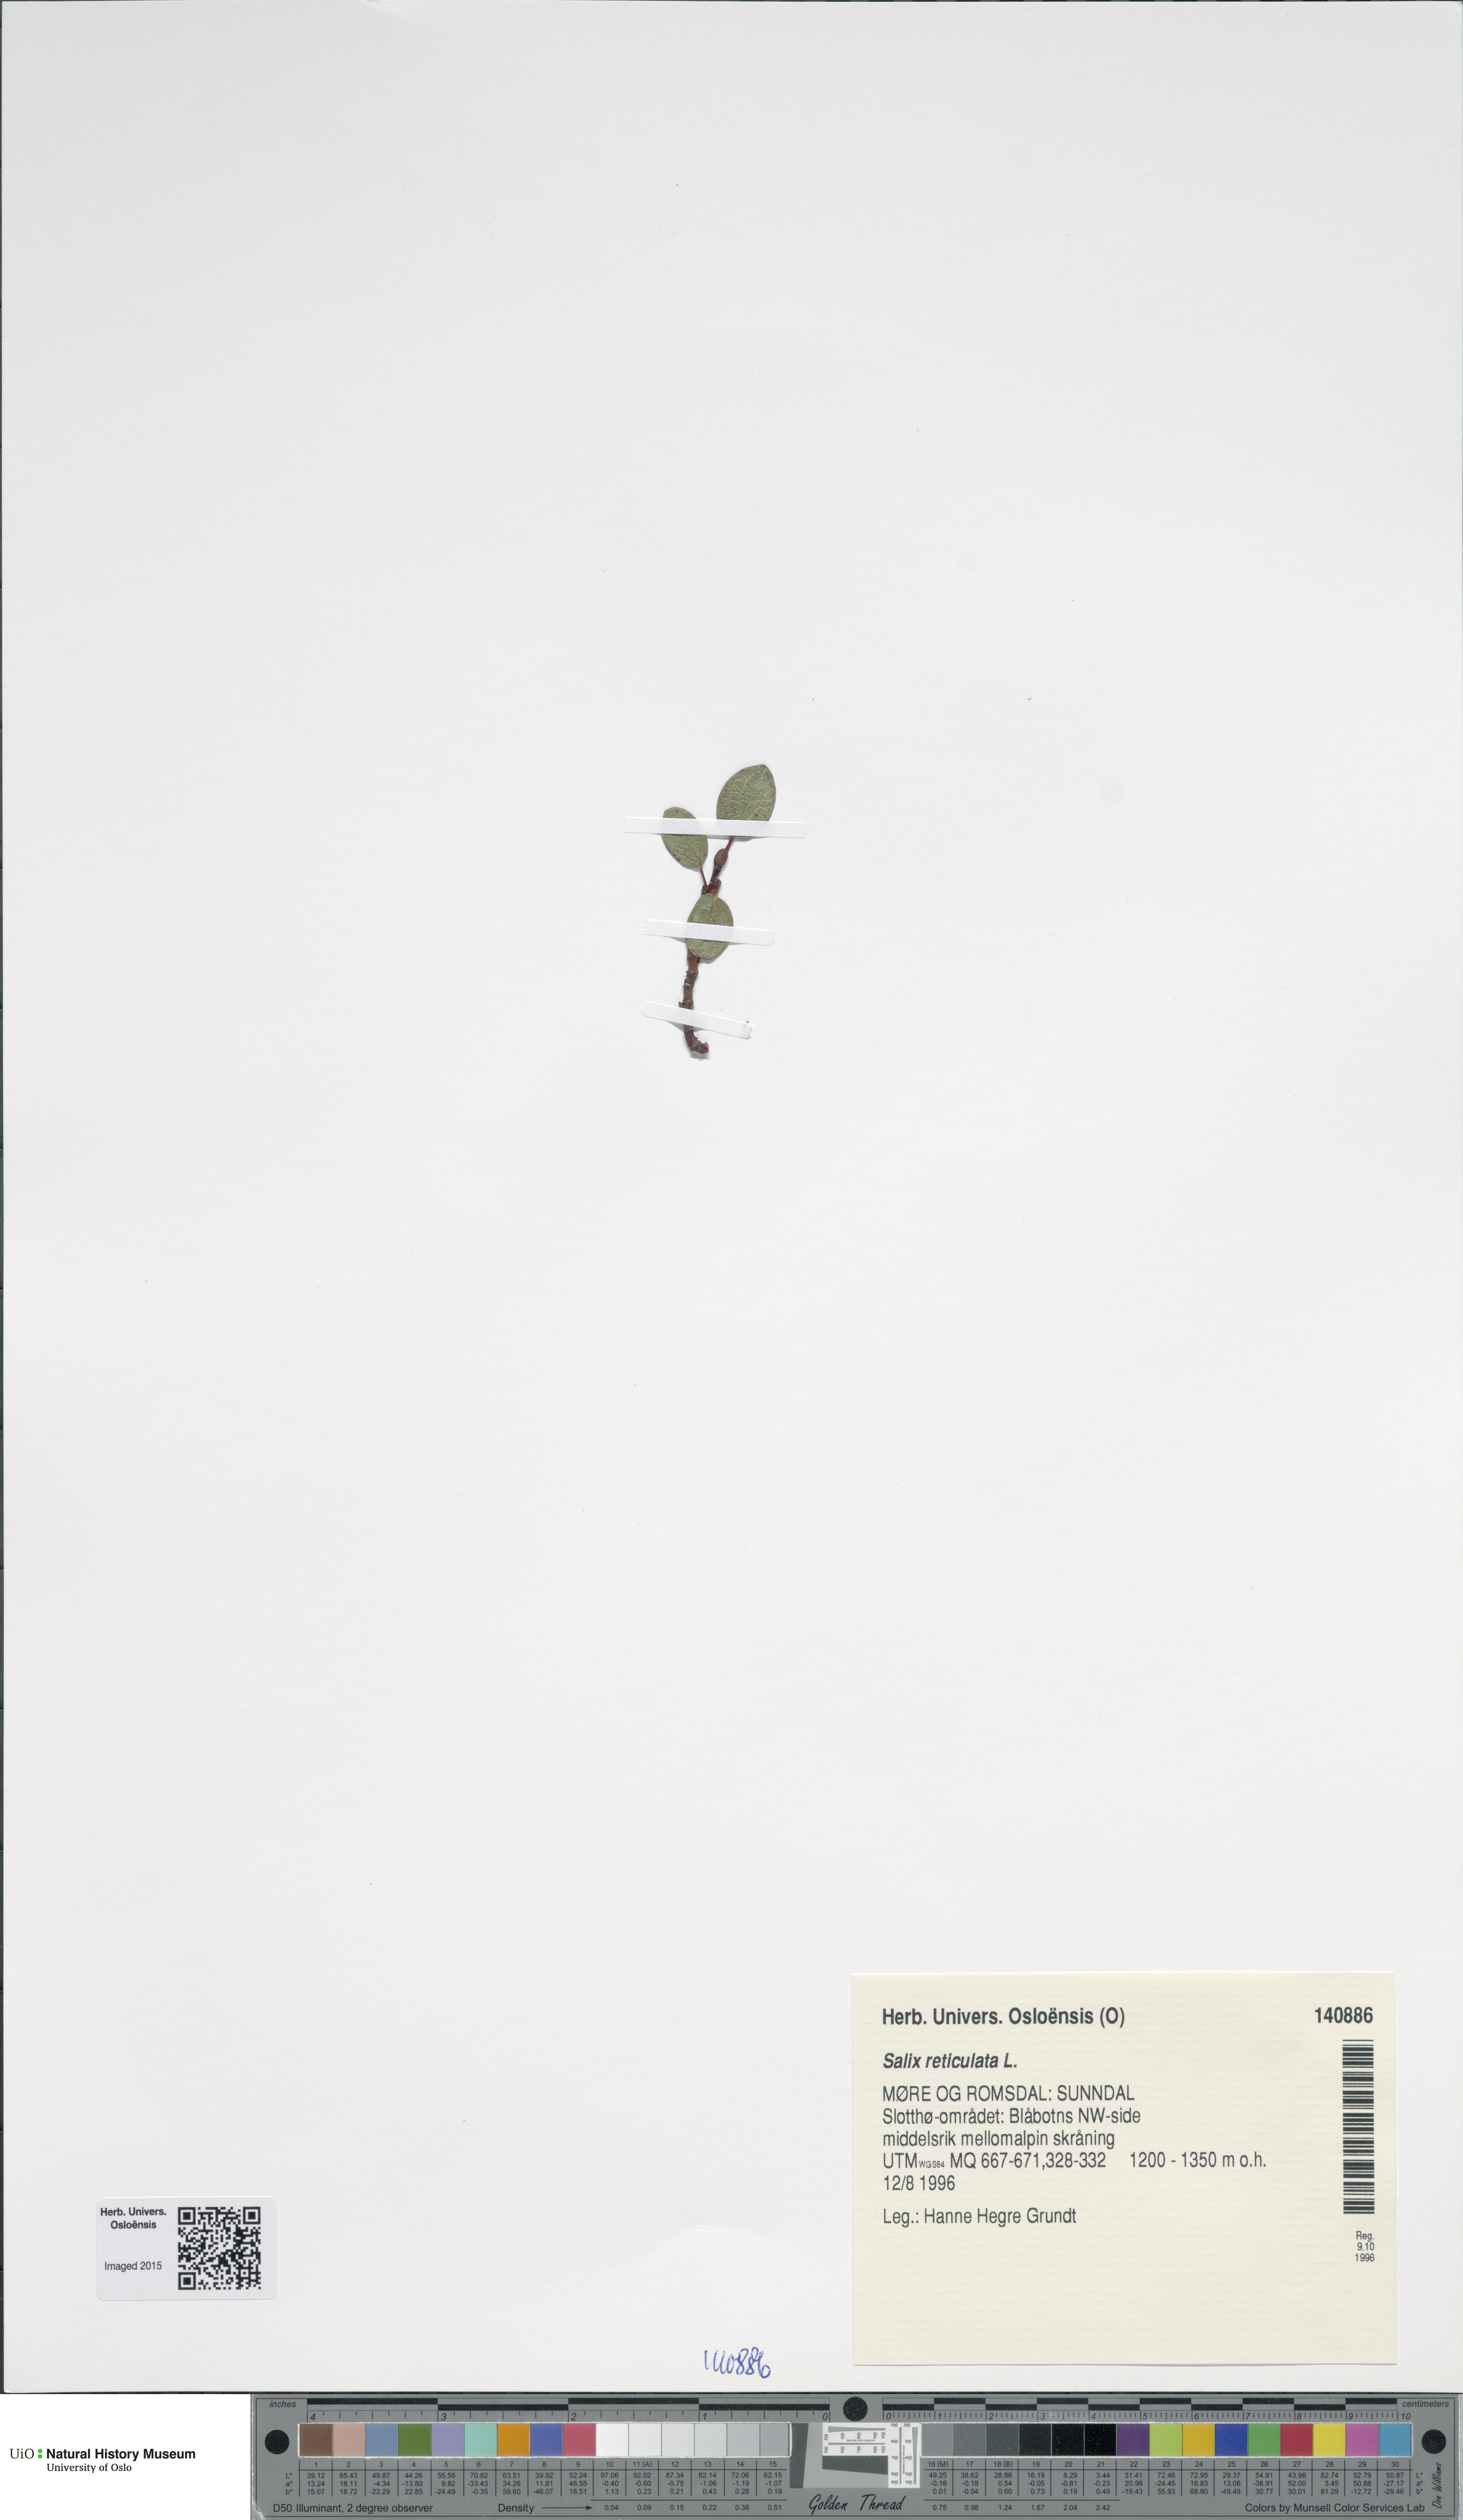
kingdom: Plantae
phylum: Tracheophyta
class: Magnoliopsida
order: Malpighiales
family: Salicaceae
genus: Salix
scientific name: Salix reticulata
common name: Net-leaved willow
